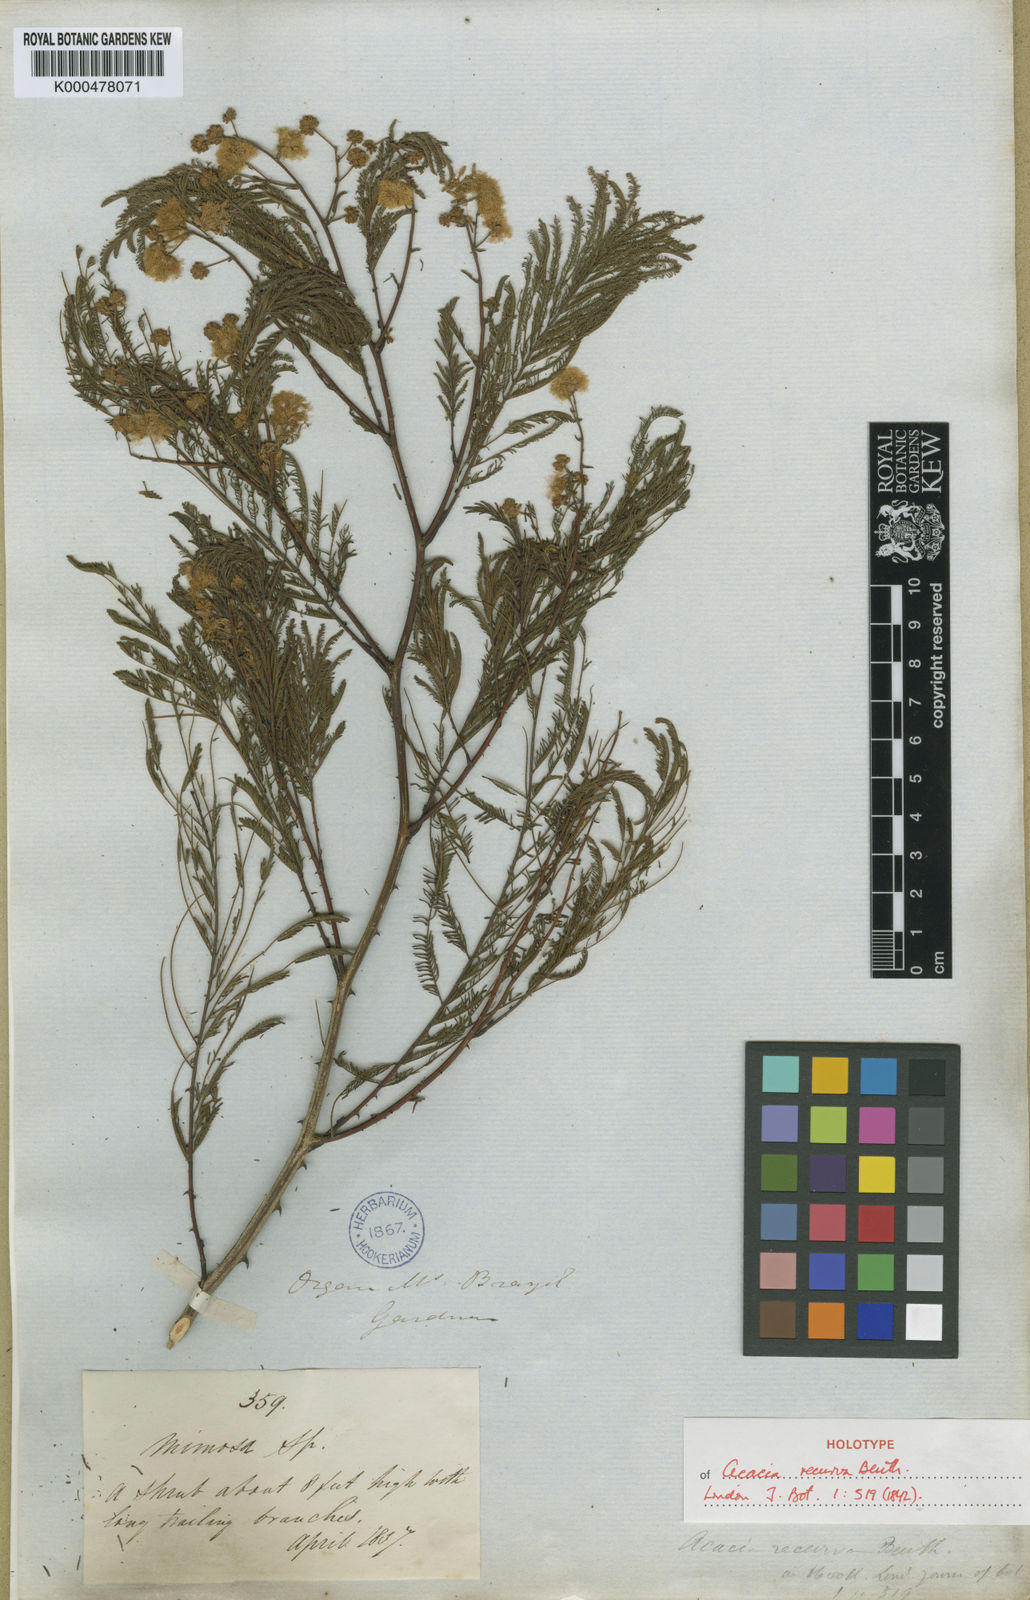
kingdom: Plantae
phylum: Tracheophyta
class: Magnoliopsida
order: Fabales
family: Fabaceae
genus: Senegalia
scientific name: Senegalia recurva
